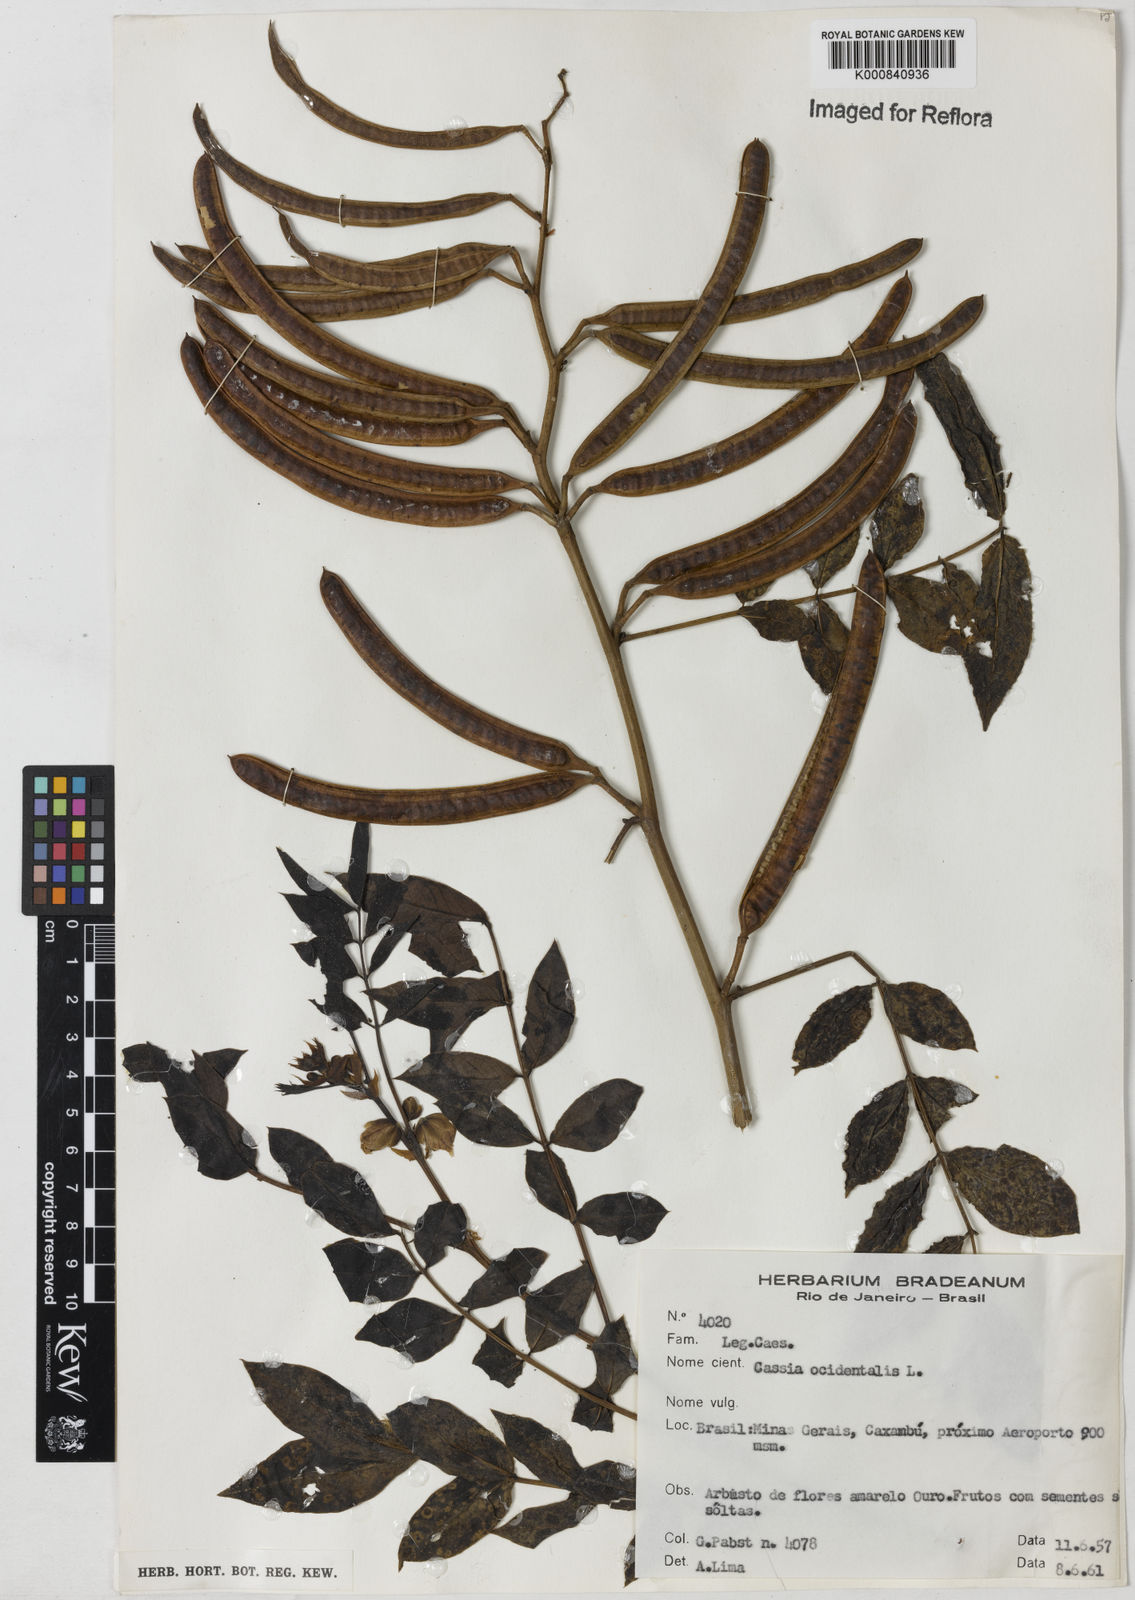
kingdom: Plantae
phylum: Tracheophyta
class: Magnoliopsida
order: Fabales
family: Fabaceae
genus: Senna
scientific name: Senna occidentalis
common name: Septicweed
